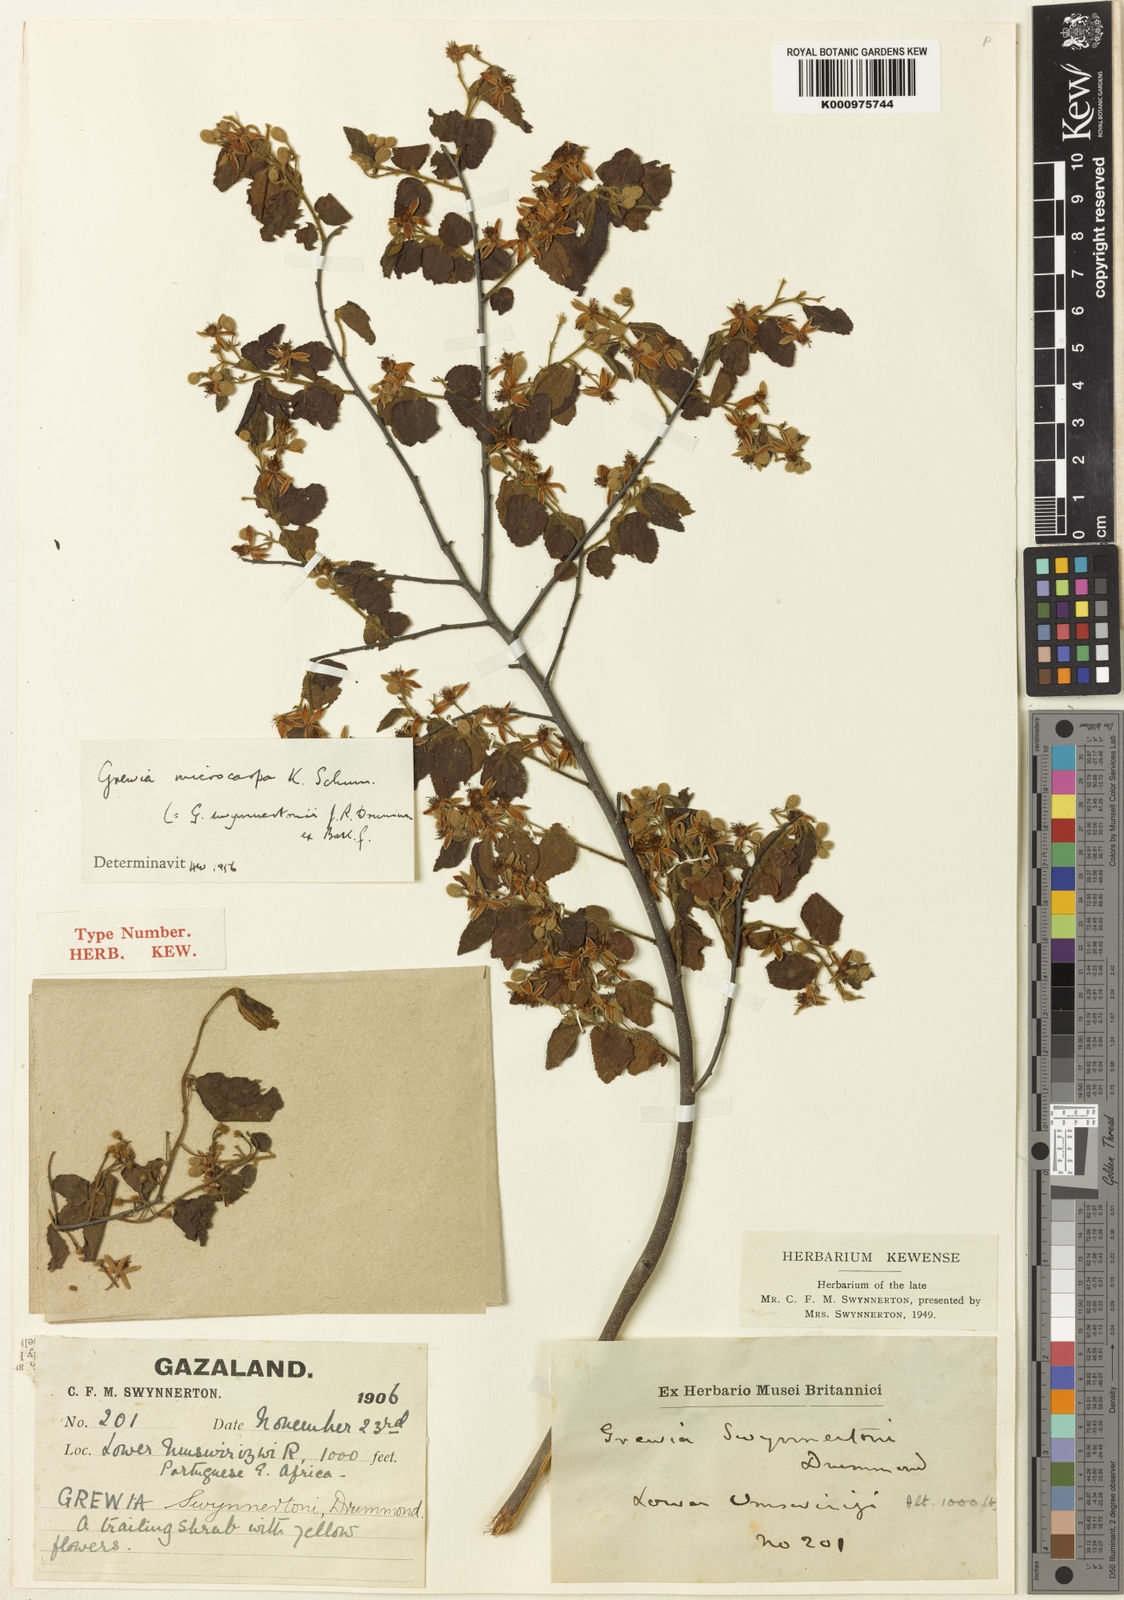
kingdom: Plantae
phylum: Tracheophyta
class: Magnoliopsida
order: Malvales
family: Malvaceae
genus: Grewia
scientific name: Grewia microcarpa
